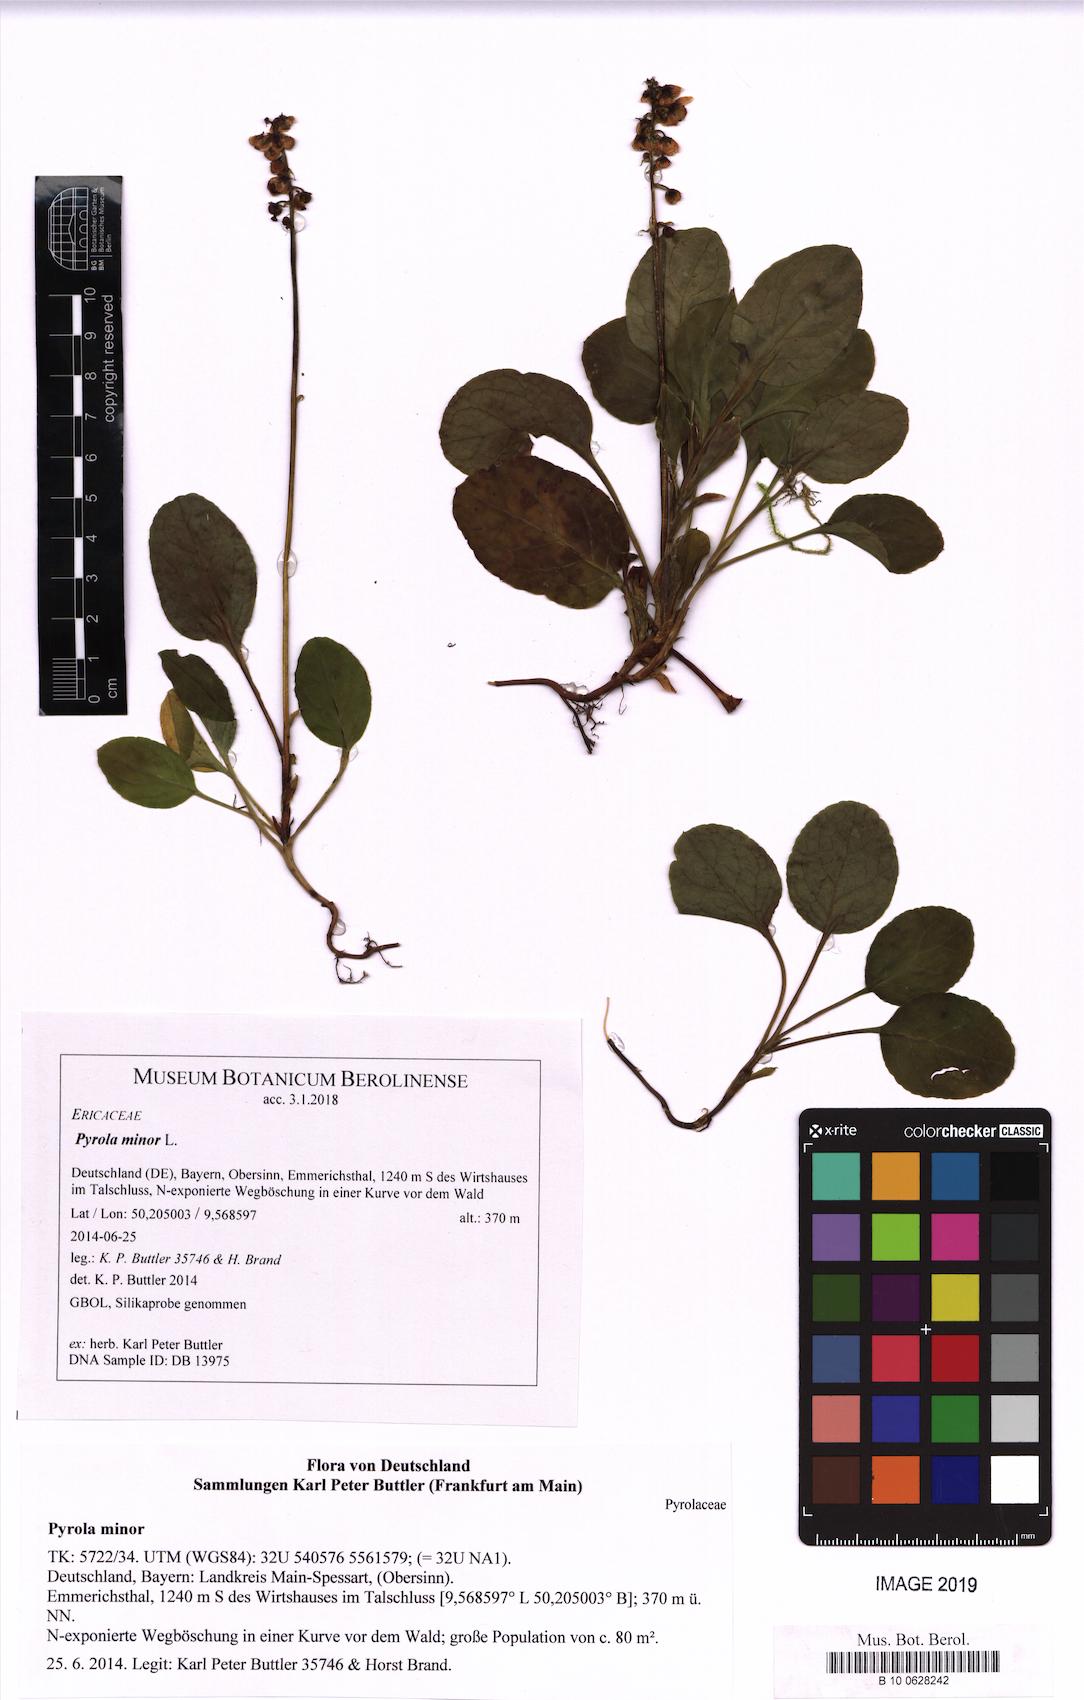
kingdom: Plantae
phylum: Tracheophyta
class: Magnoliopsida
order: Ericales
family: Ericaceae
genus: Pyrola
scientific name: Pyrola minor
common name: Common wintergreen
